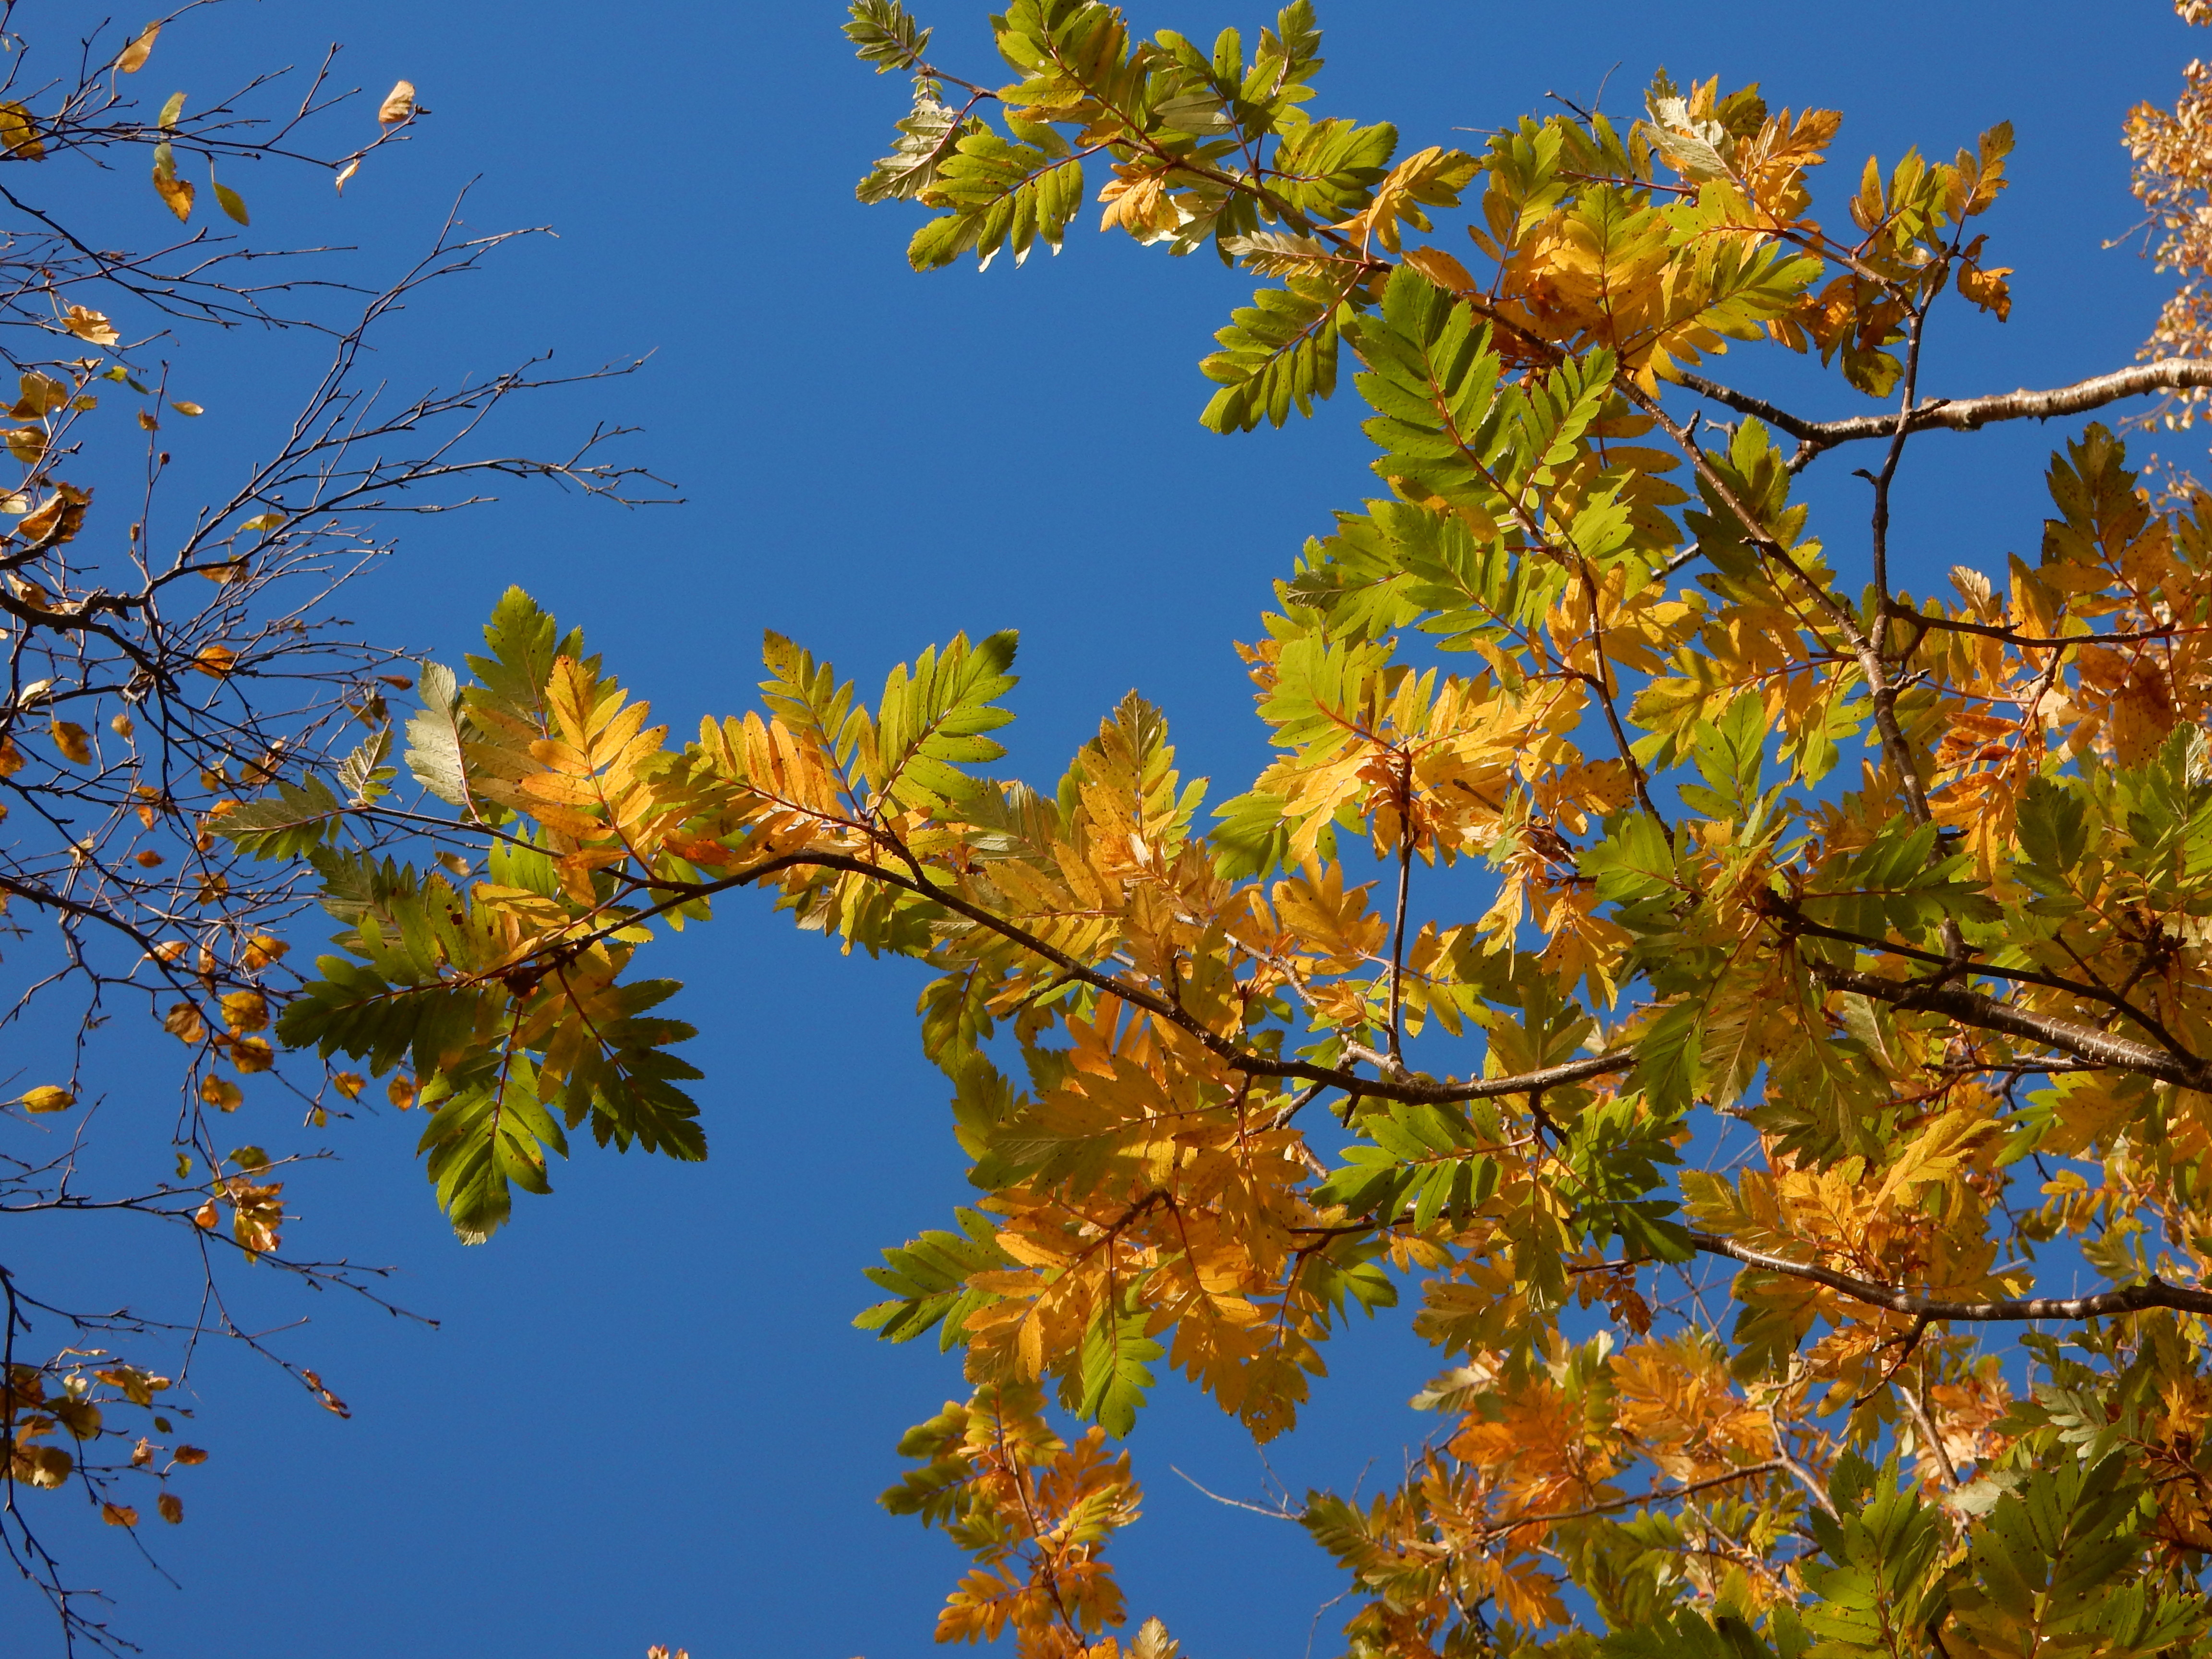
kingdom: Plantae
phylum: Tracheophyta
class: Magnoliopsida
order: Rosales
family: Rosaceae
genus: Hedlundia
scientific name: Hedlundia meinichii
